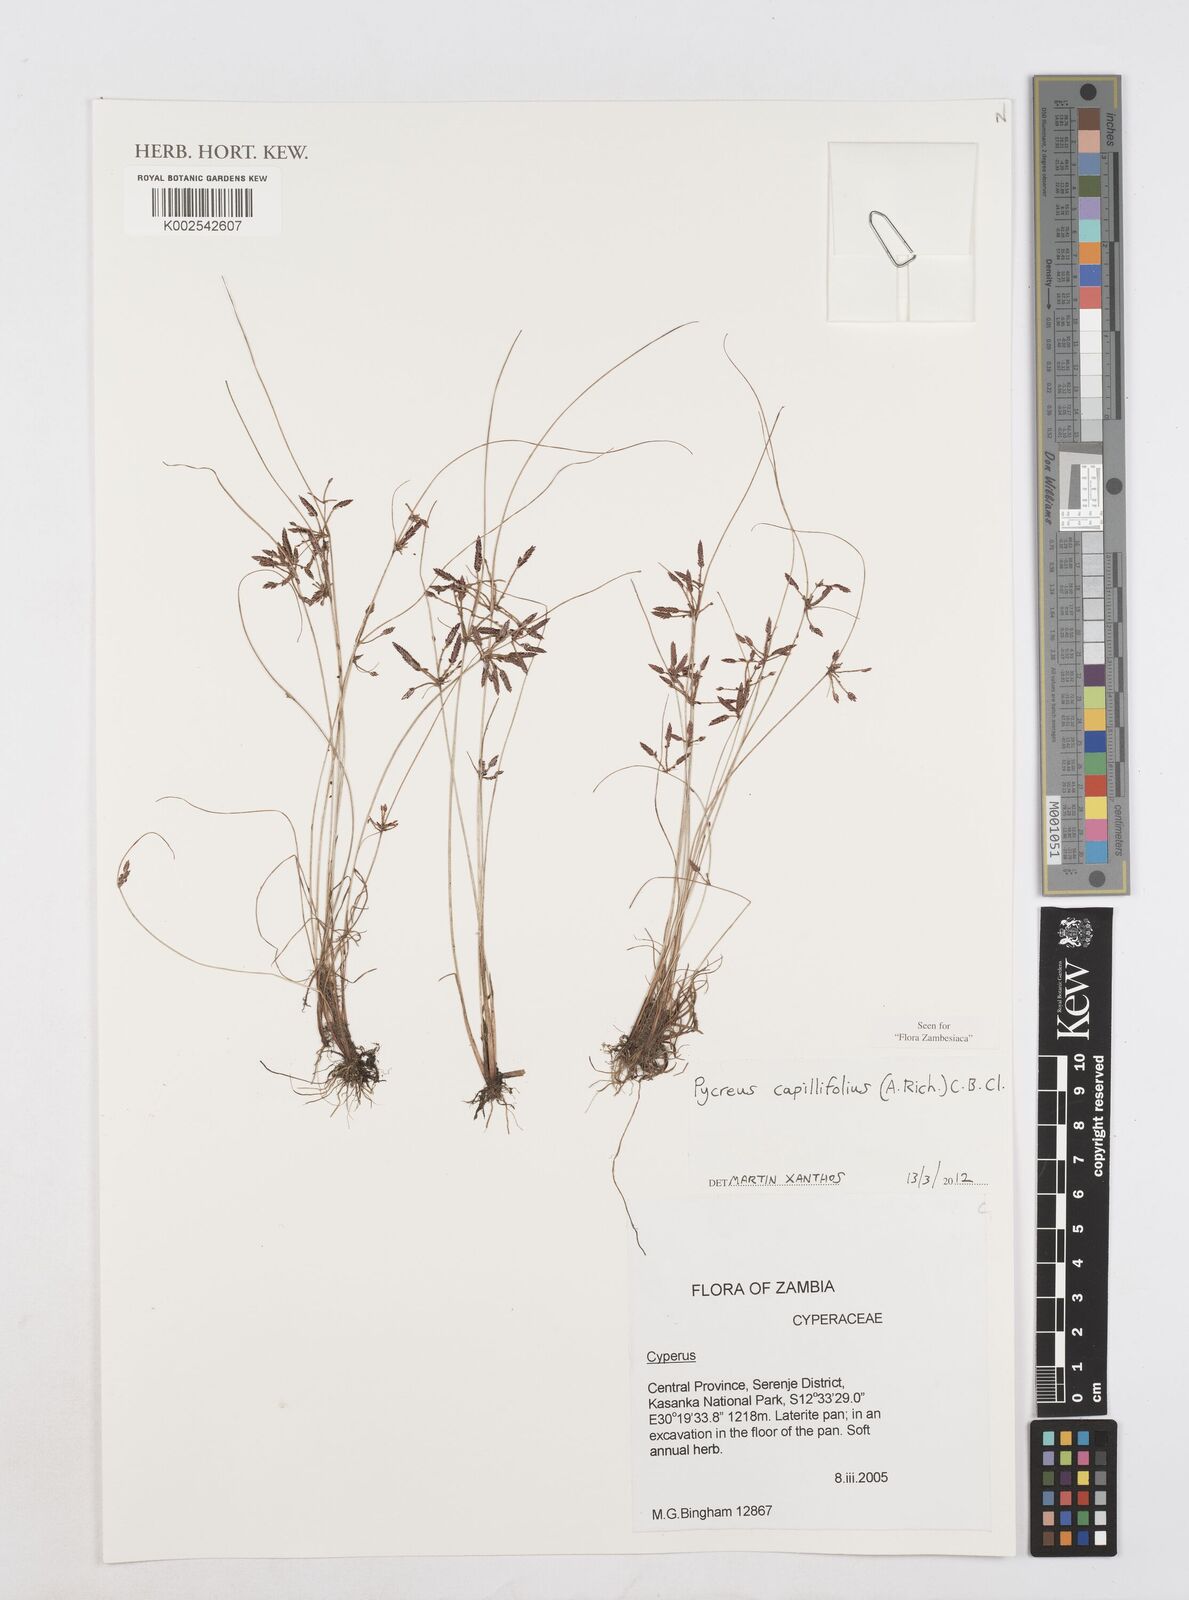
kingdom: Plantae
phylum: Tracheophyta
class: Liliopsida
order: Poales
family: Cyperaceae
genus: Cyperus
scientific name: Cyperus capillifolius
